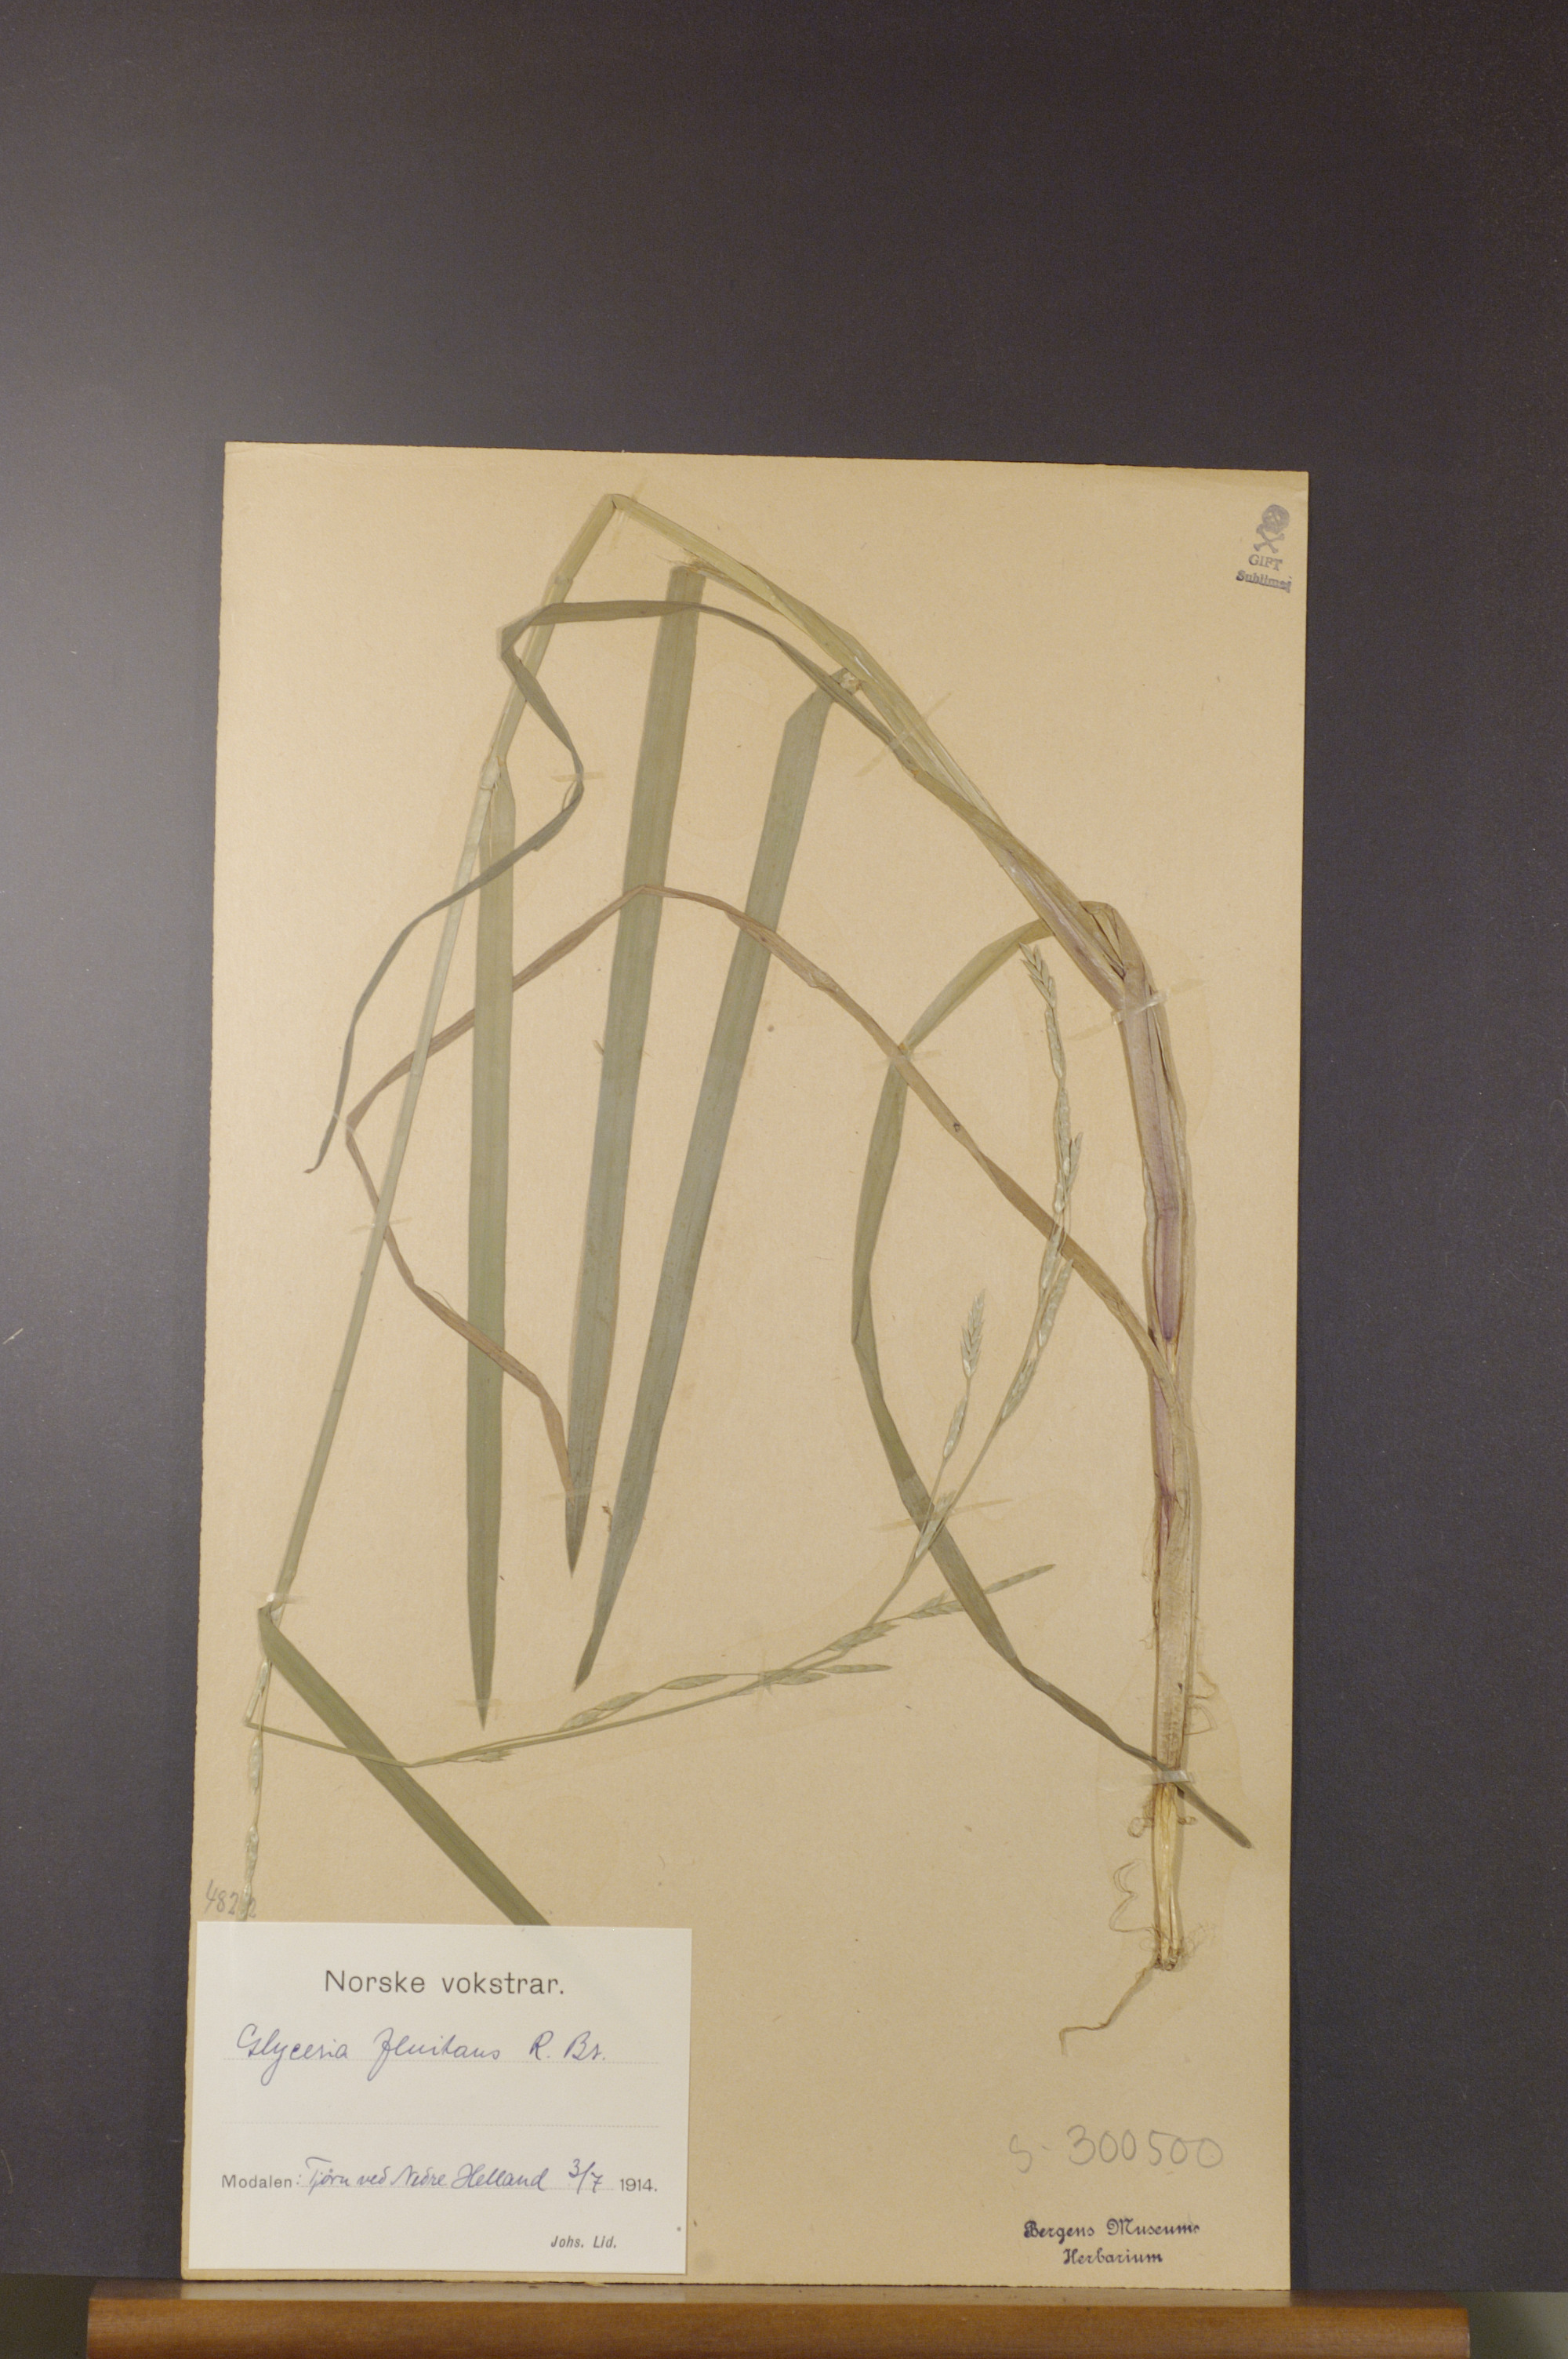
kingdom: Plantae
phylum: Tracheophyta
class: Liliopsida
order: Poales
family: Poaceae
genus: Glyceria
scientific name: Glyceria fluitans
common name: Floating sweet-grass
